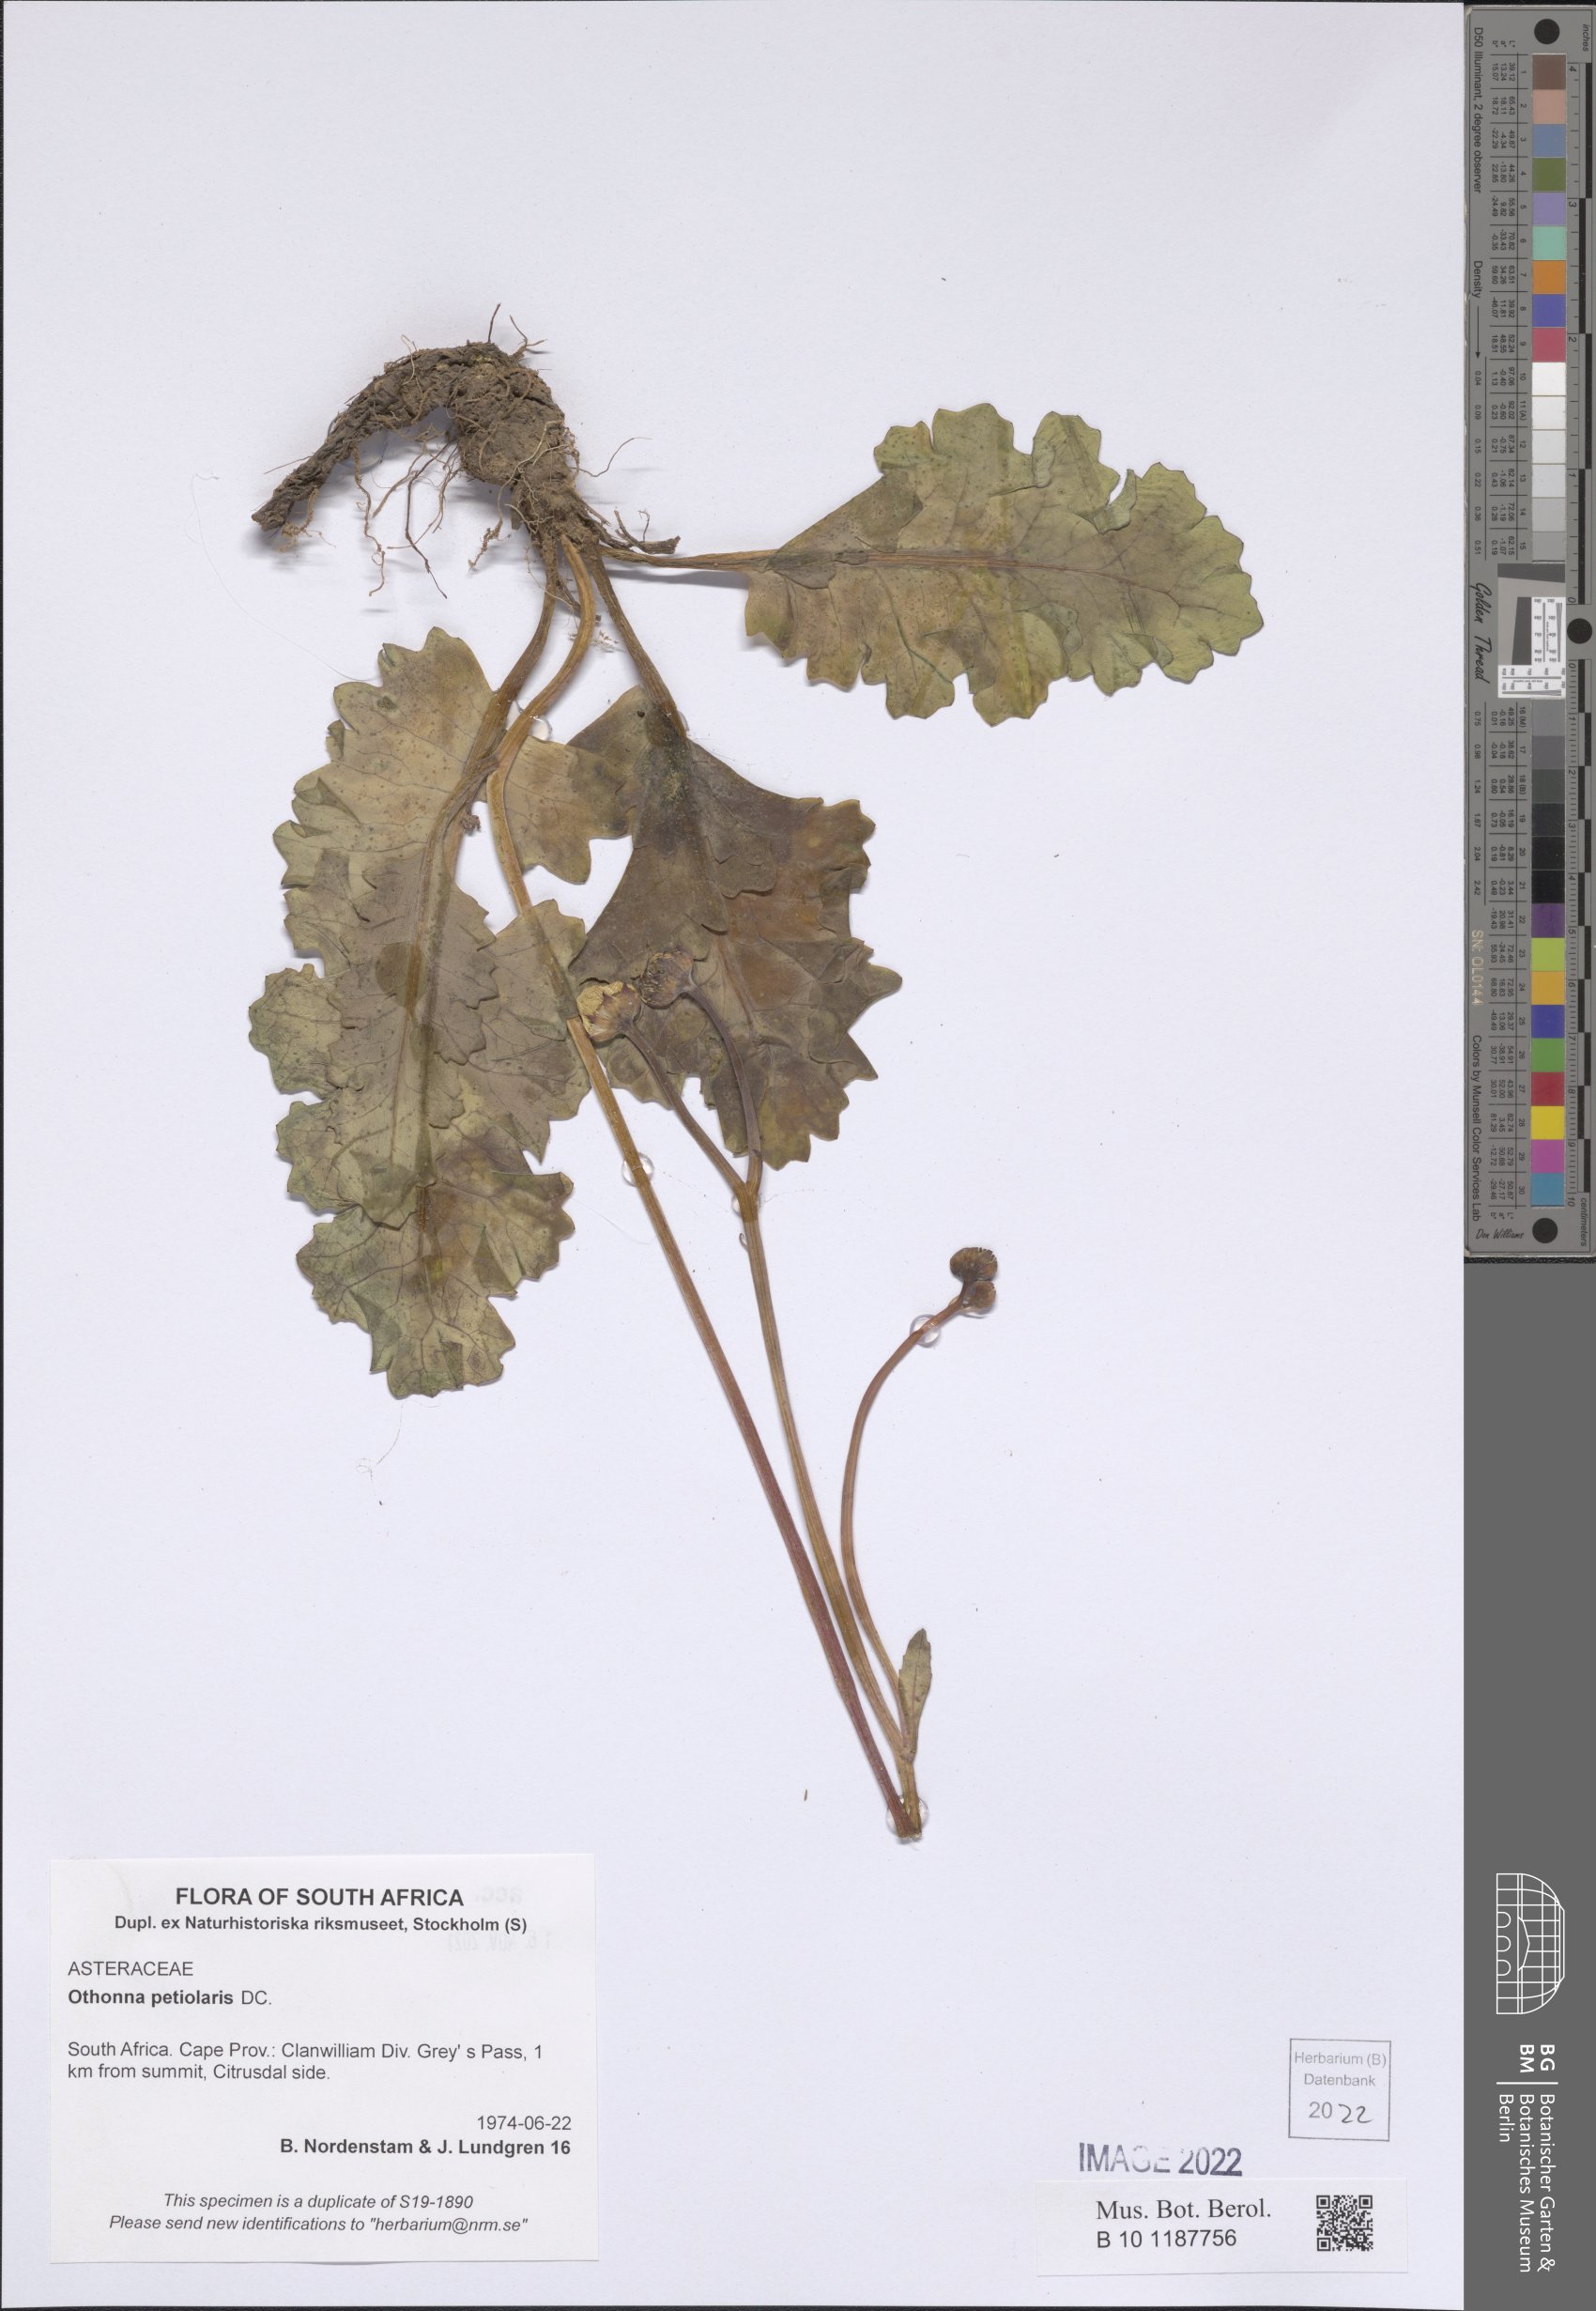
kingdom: Plantae
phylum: Tracheophyta
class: Magnoliopsida
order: Asterales
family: Asteraceae
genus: Othonna
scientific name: Othonna petiolaris
